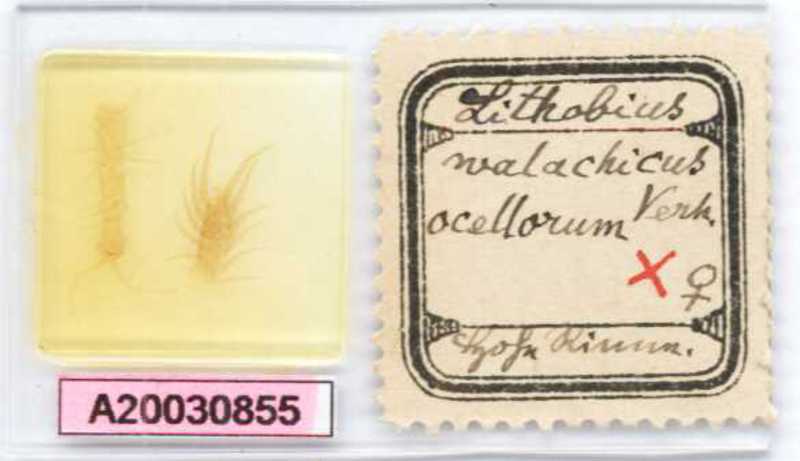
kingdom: Animalia
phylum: Arthropoda
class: Chilopoda
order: Lithobiomorpha
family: Lithobiidae
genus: Lithobius
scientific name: Lithobius lucifugus
